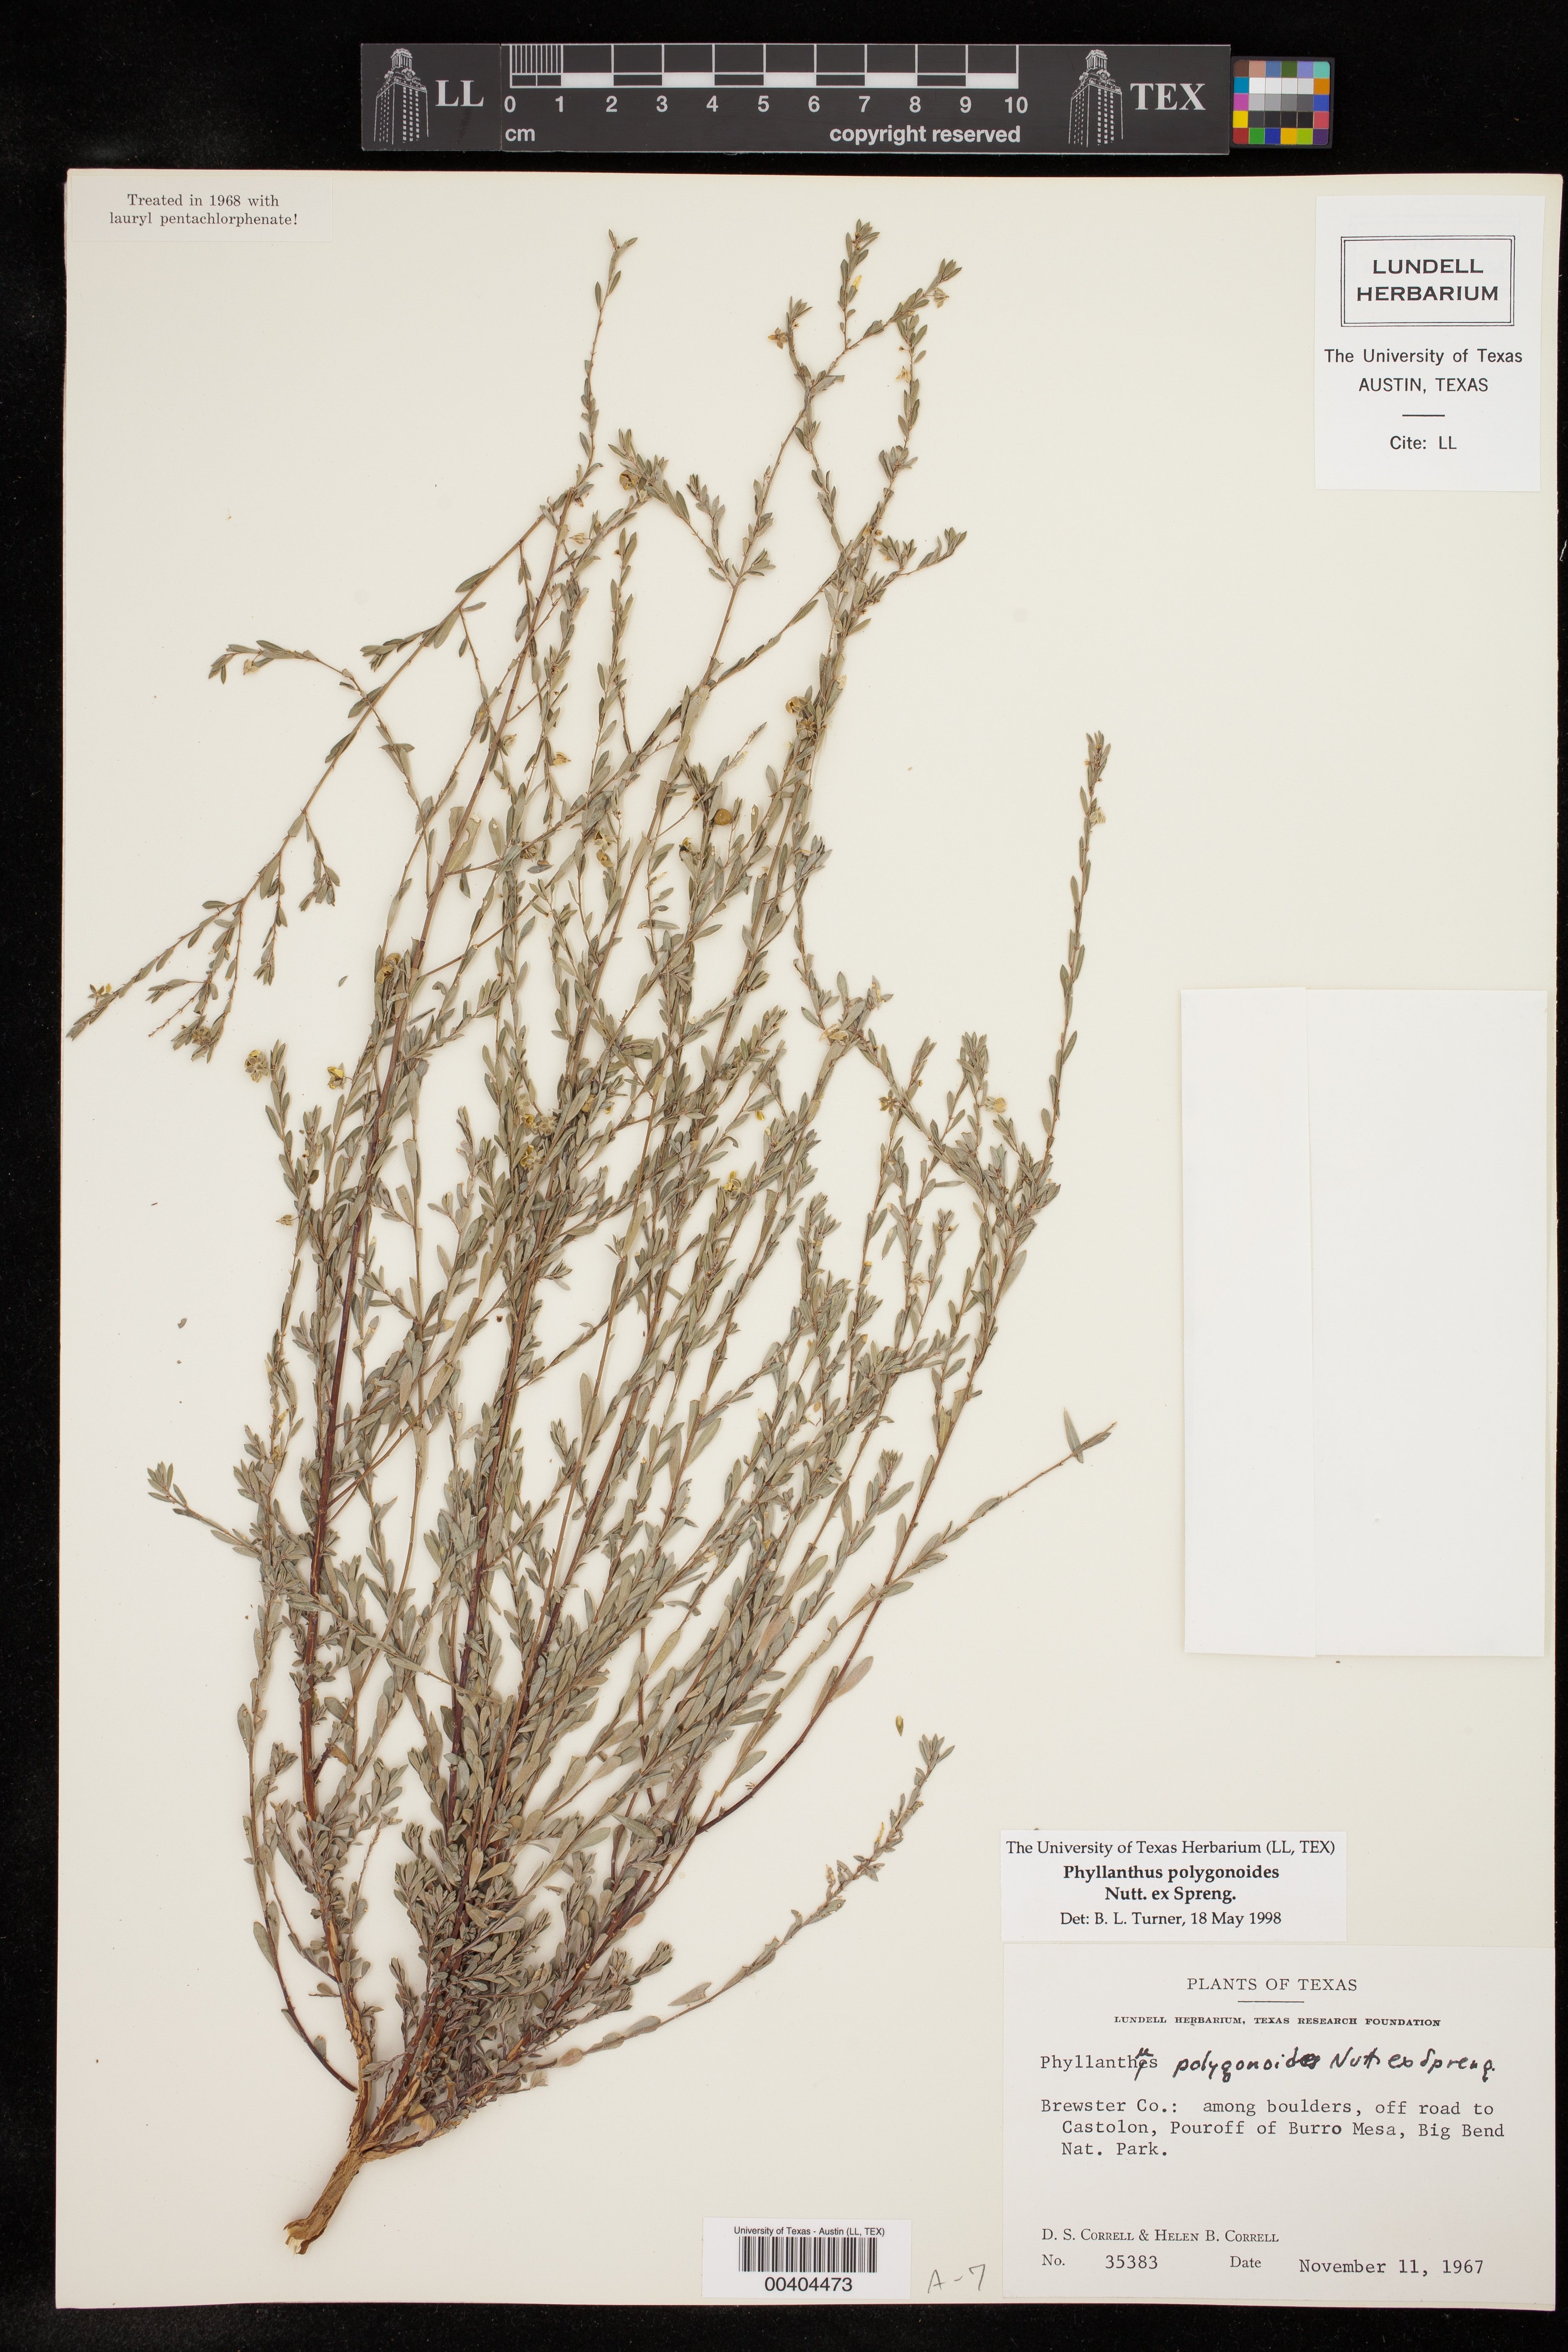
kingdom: Plantae
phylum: Tracheophyta
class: Magnoliopsida
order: Malpighiales
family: Phyllanthaceae
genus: Phyllanthus
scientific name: Phyllanthus polygonoides
